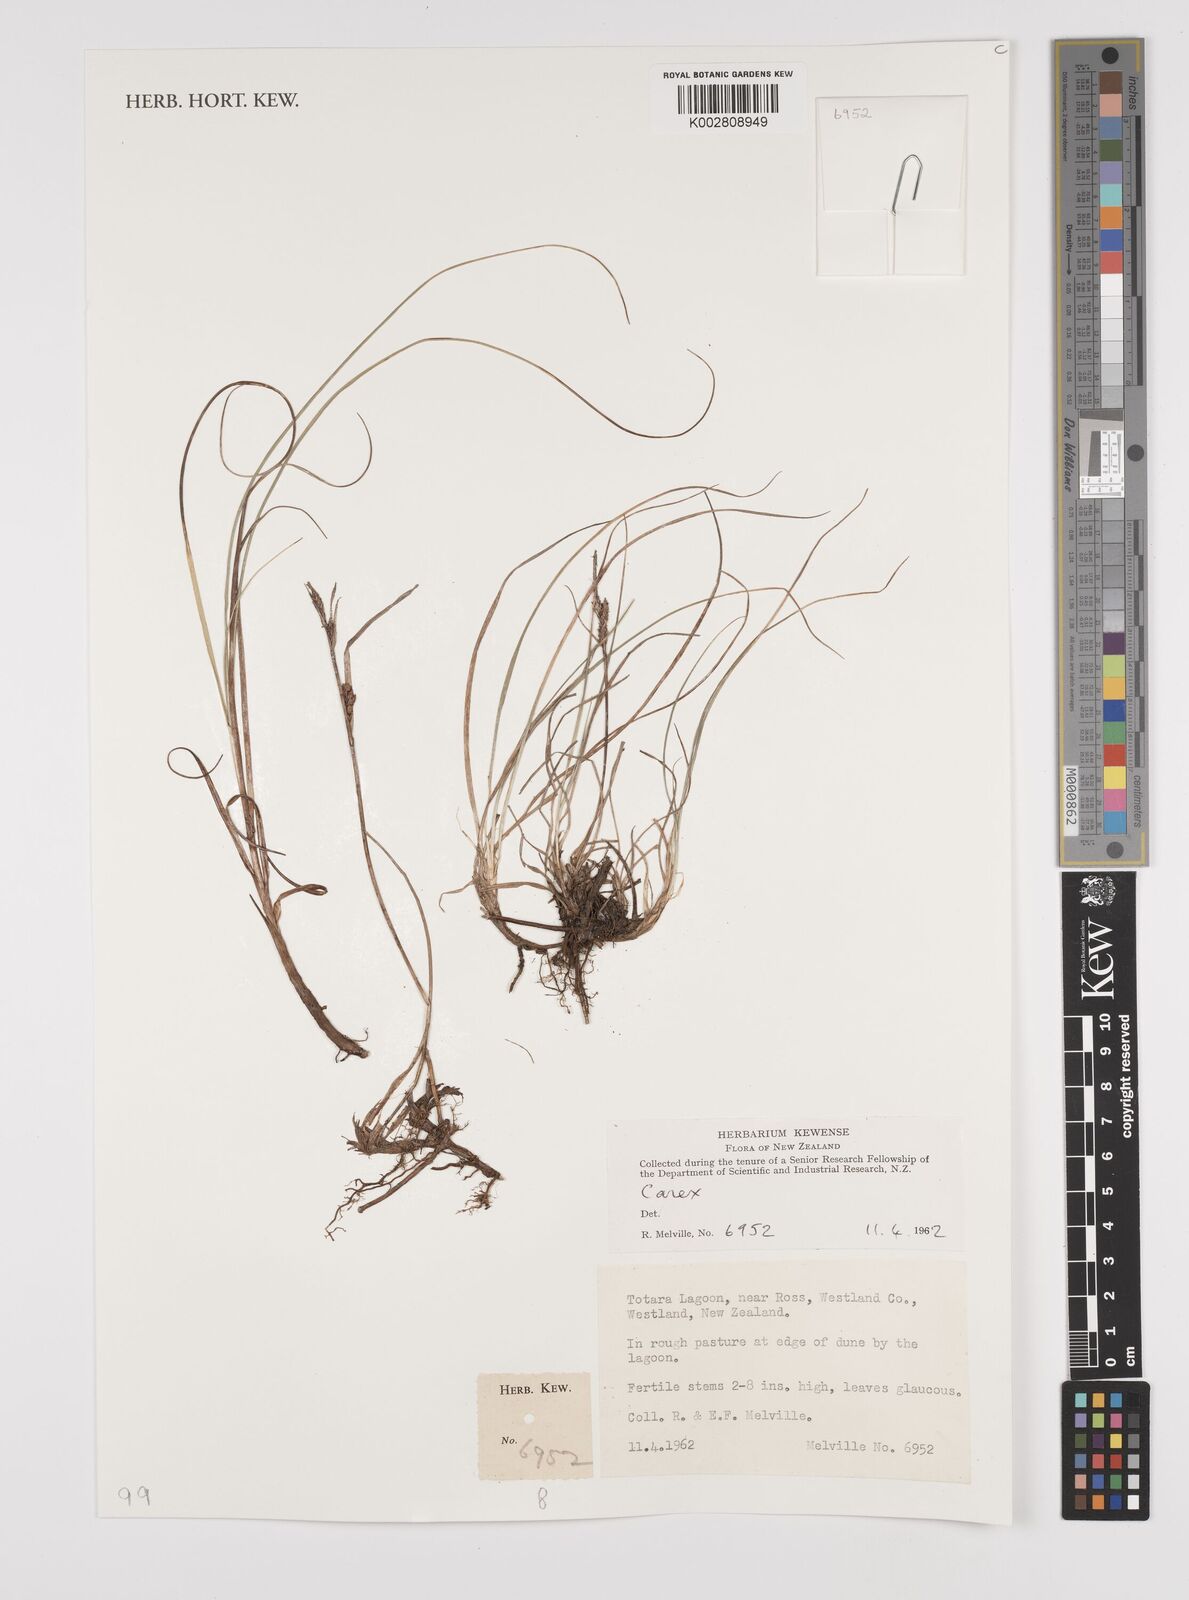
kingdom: Plantae
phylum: Tracheophyta
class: Liliopsida
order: Poales
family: Cyperaceae
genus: Carex
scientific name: Carex
